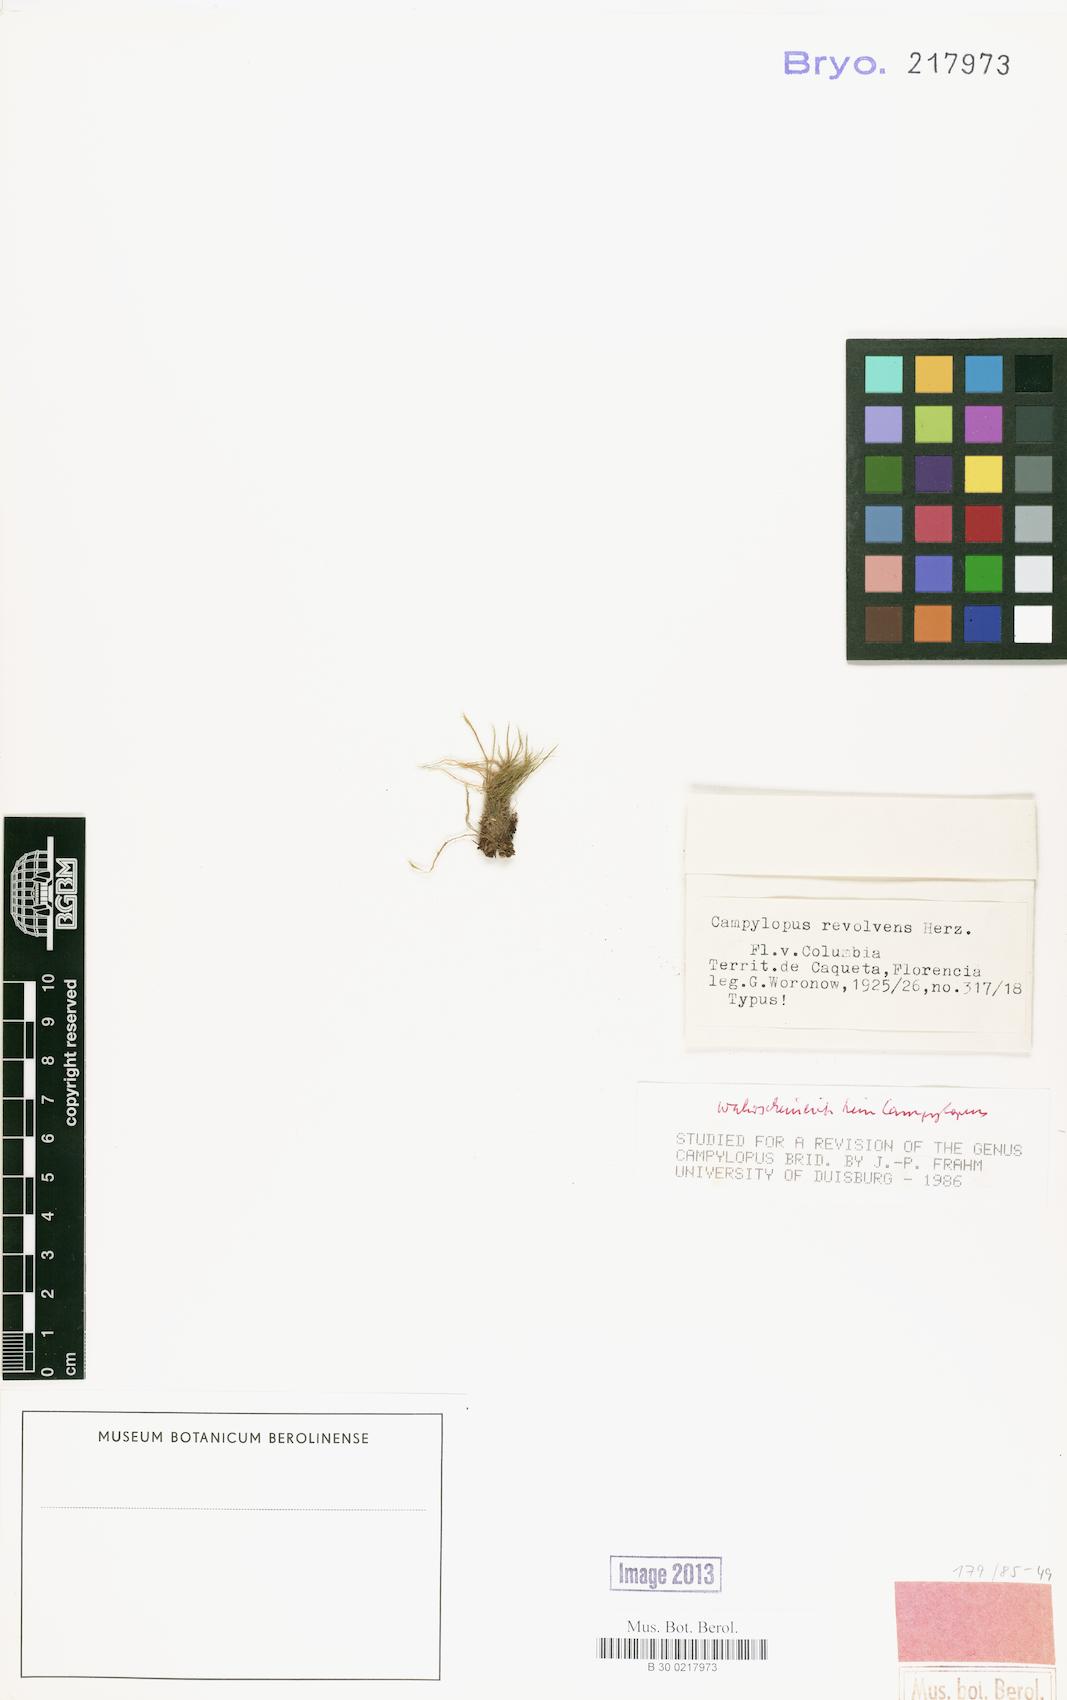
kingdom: Plantae
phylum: Bryophyta
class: Bryopsida
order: Dicranales
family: Leucobryaceae
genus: Campylopus
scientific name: Campylopus surinamensis
